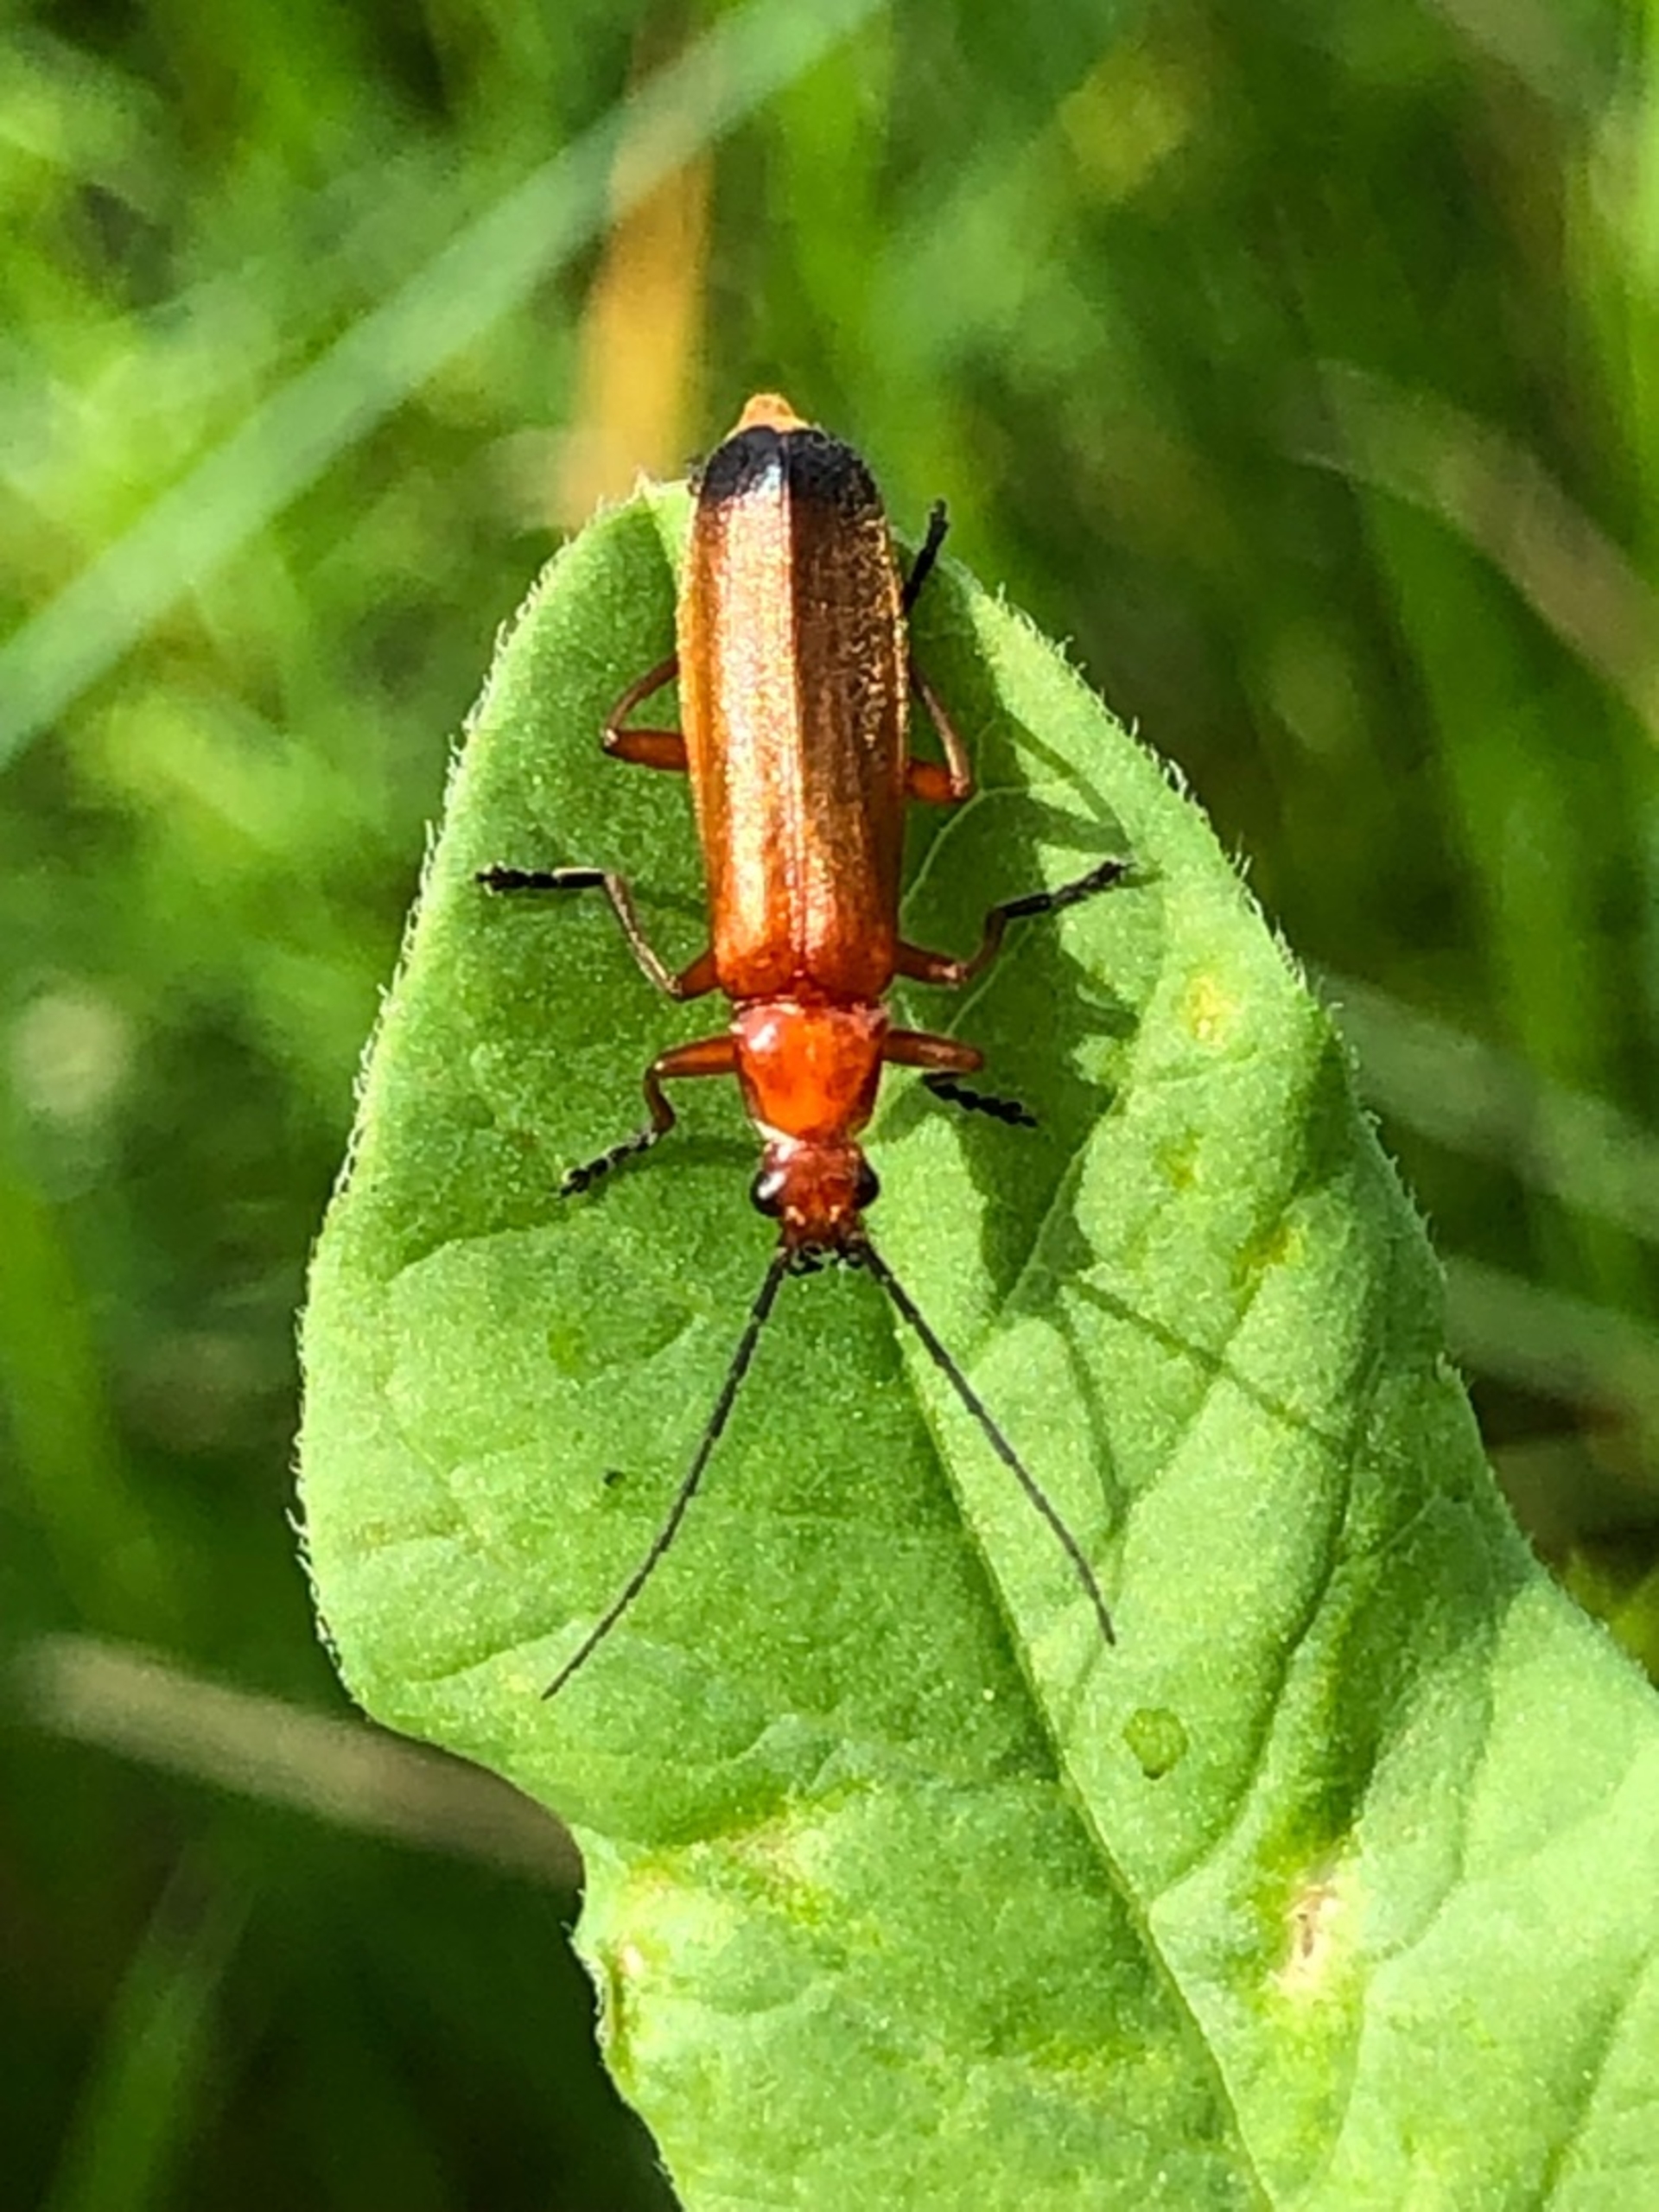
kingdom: Animalia
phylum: Arthropoda
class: Insecta
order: Coleoptera
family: Cantharidae
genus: Rhagonycha
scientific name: Rhagonycha fulva
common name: Præstebille
